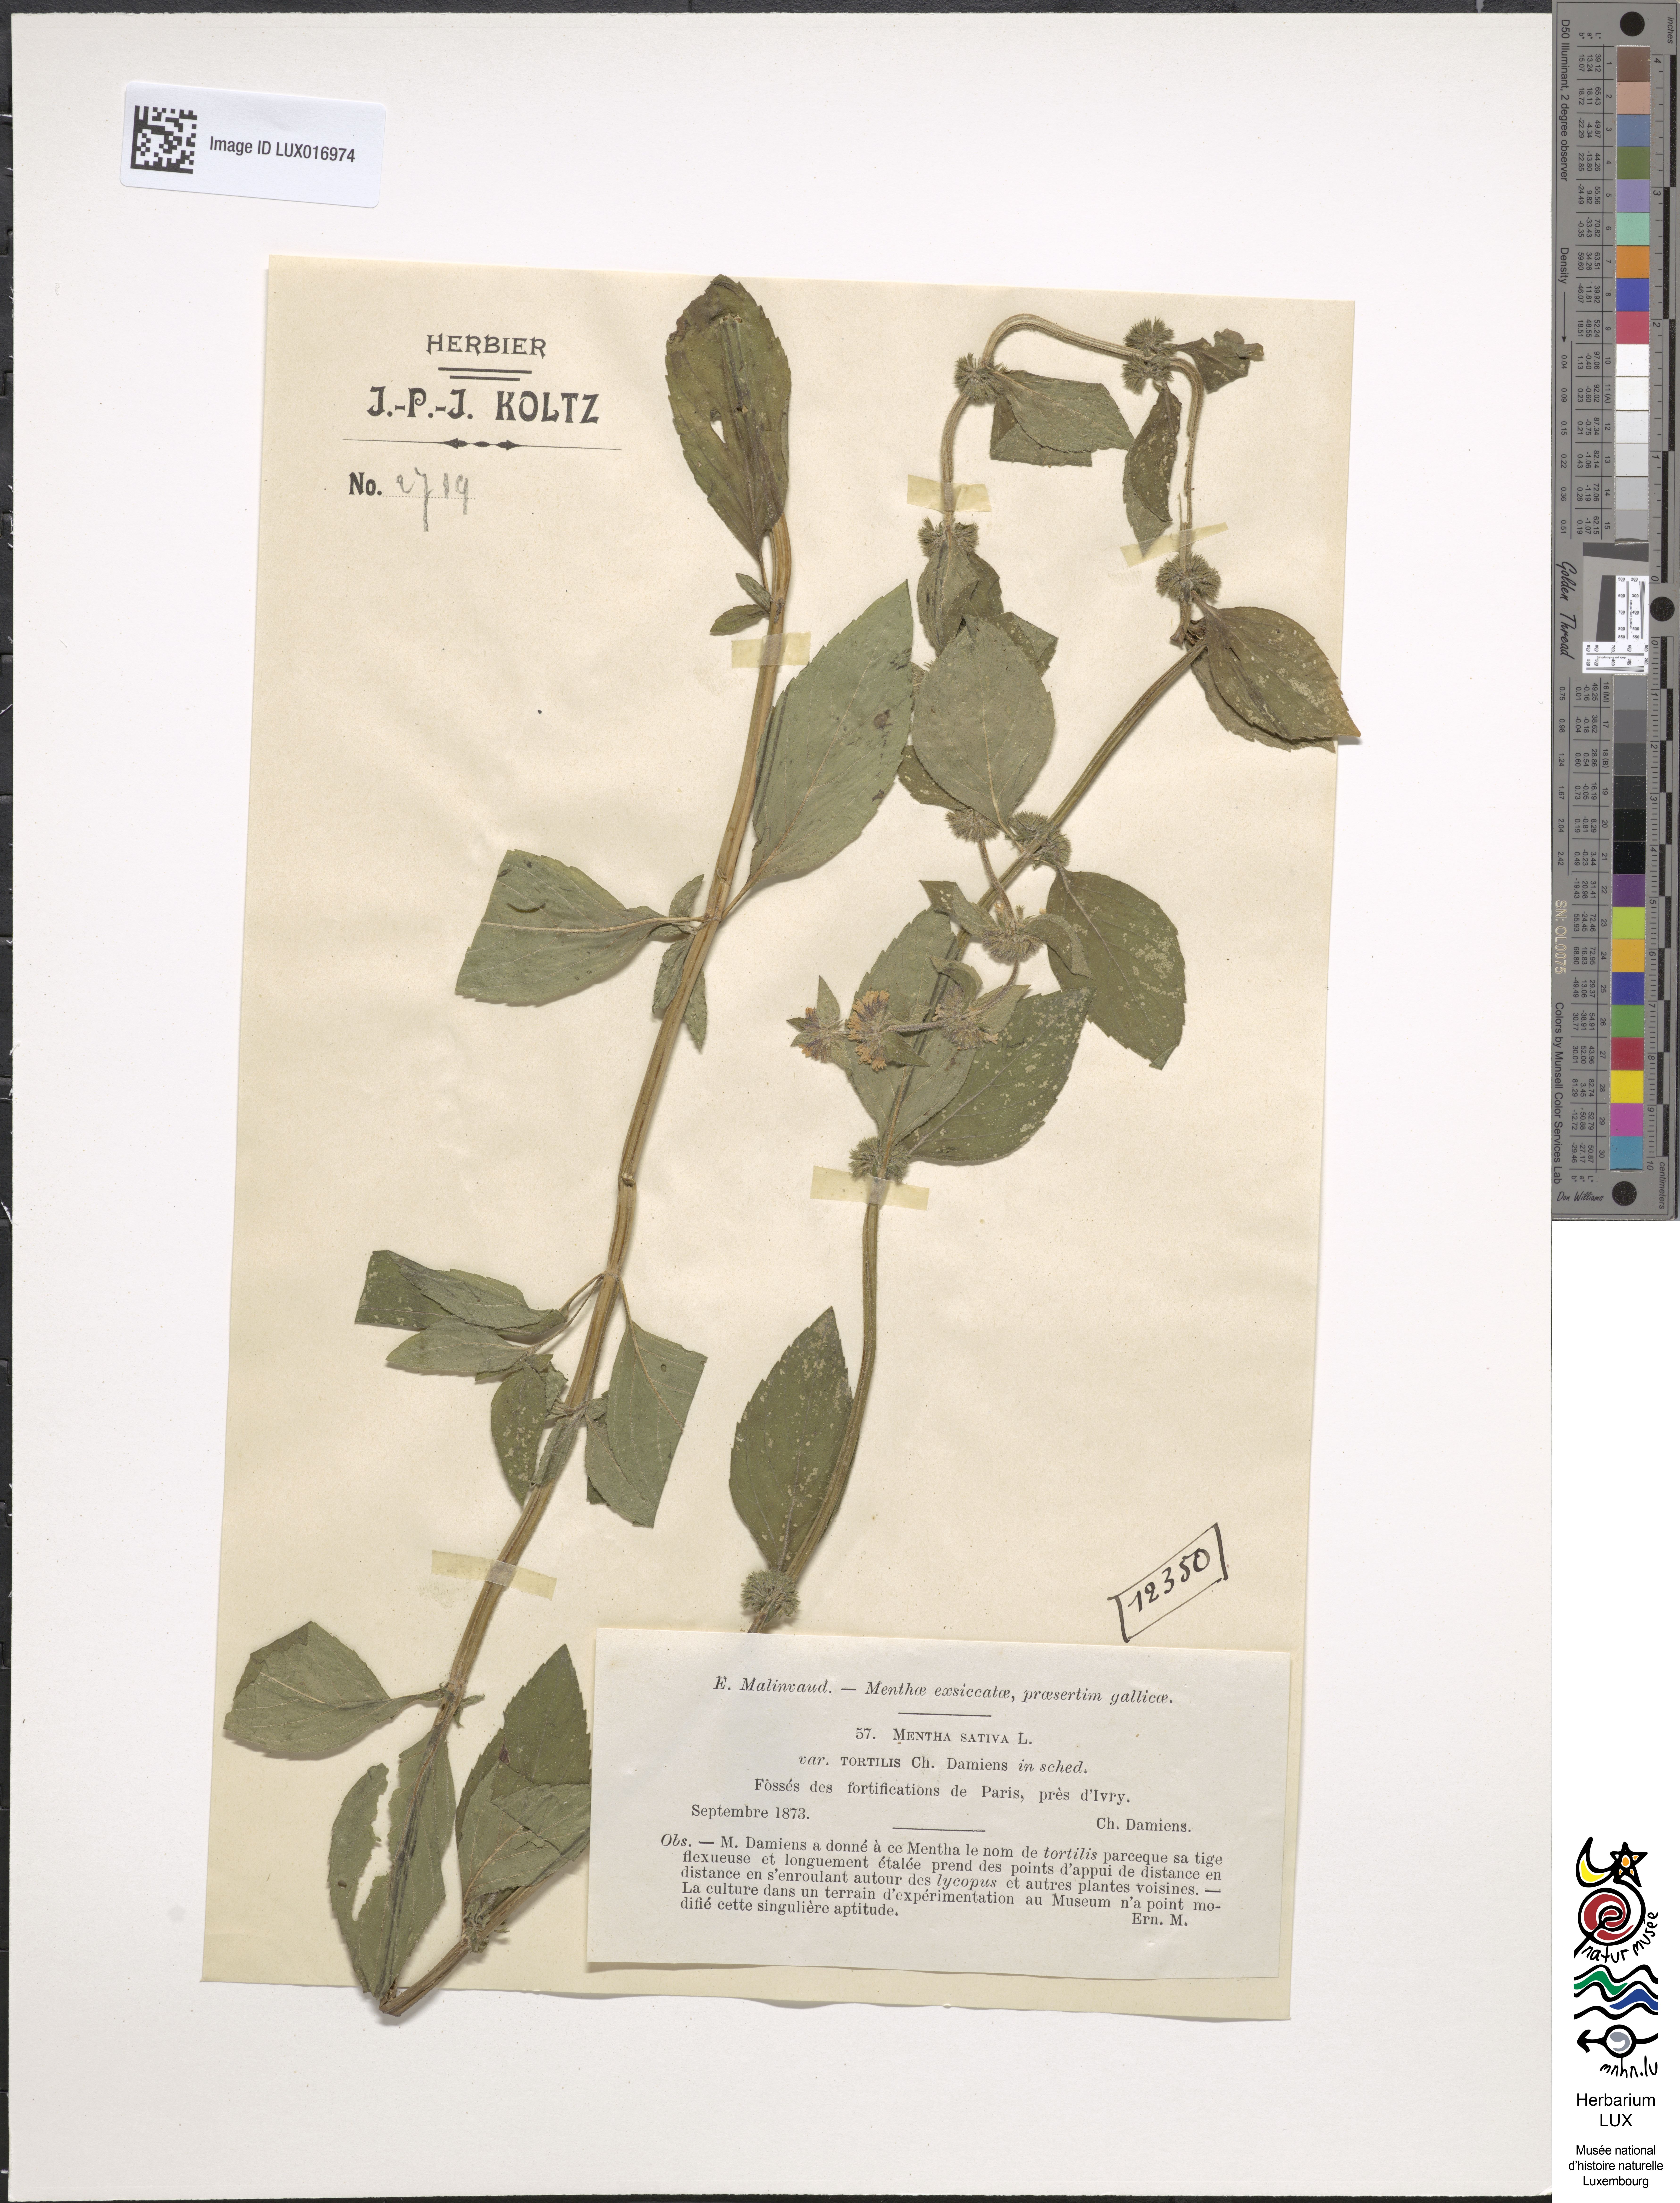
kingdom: Plantae
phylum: Tracheophyta
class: Magnoliopsida
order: Lamiales
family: Lamiaceae
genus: Mentha
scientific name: Mentha verticillata
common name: Mint
